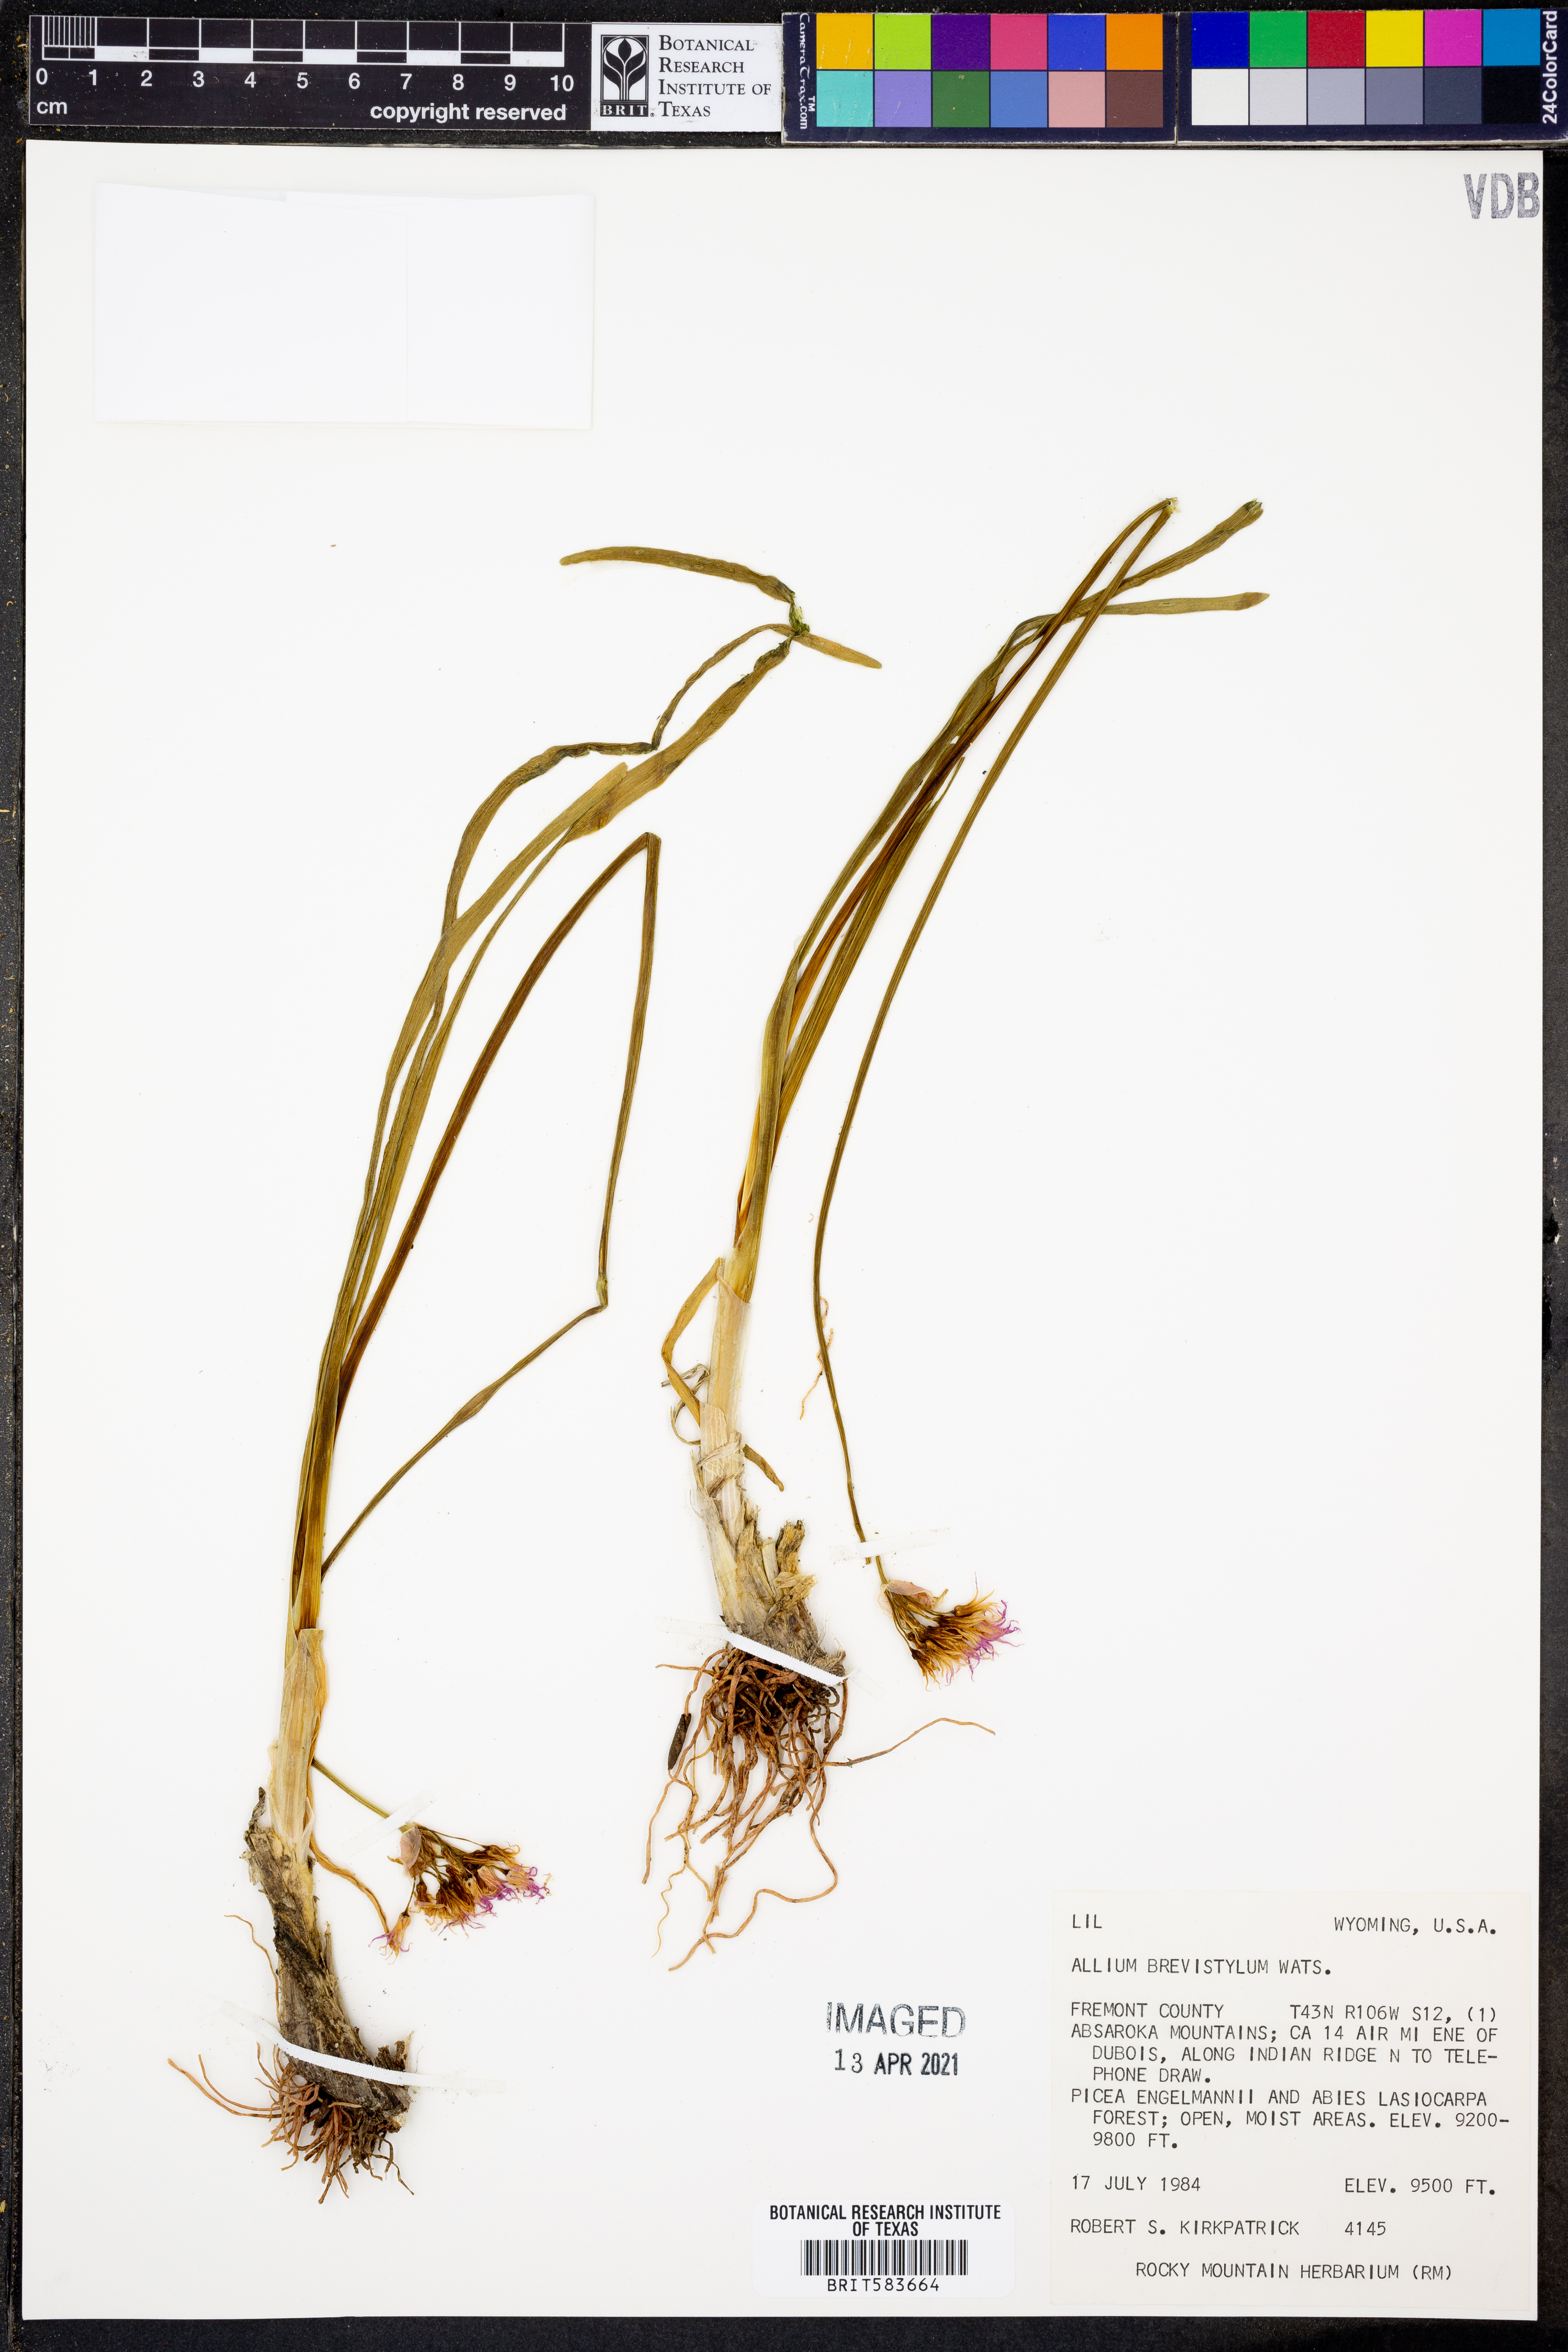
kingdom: Plantae
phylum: Tracheophyta
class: Liliopsida
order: Asparagales
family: Amaryllidaceae
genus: Allium
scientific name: Allium brevistylum
